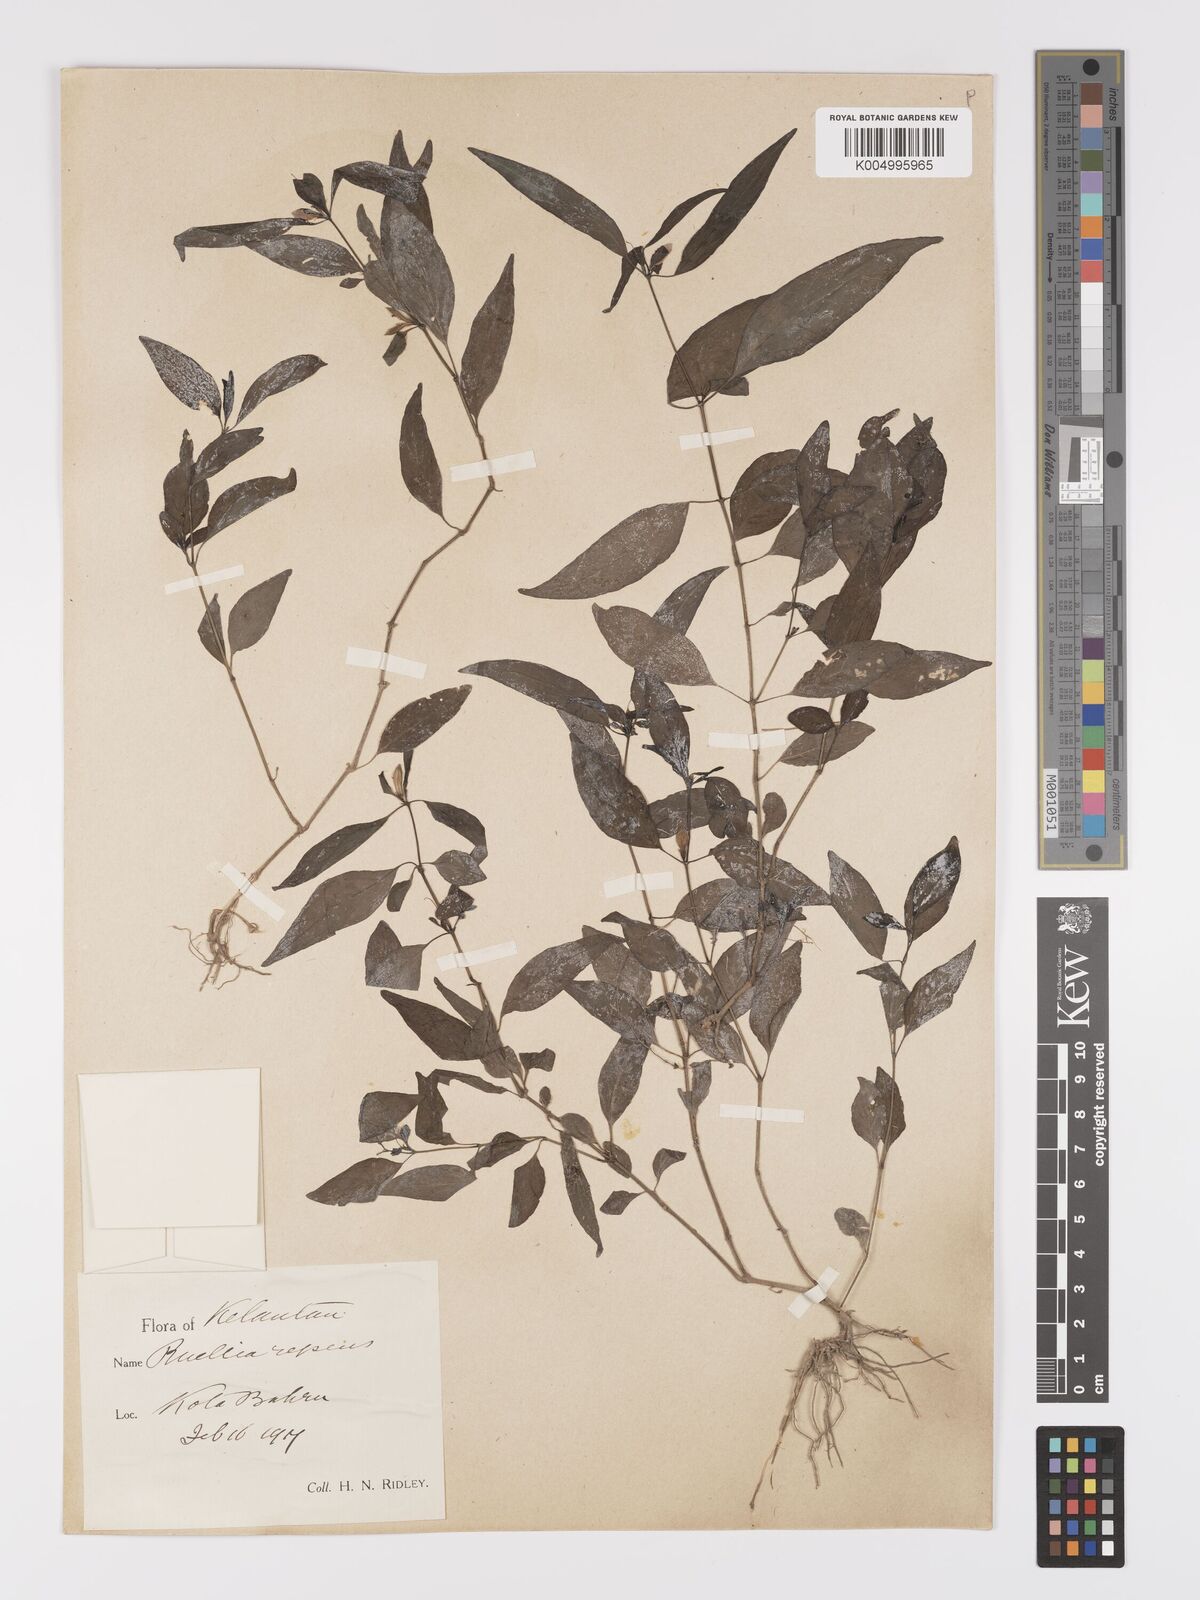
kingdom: Plantae
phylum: Tracheophyta
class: Magnoliopsida
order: Lamiales
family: Acanthaceae
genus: Ruellia
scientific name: Ruellia
